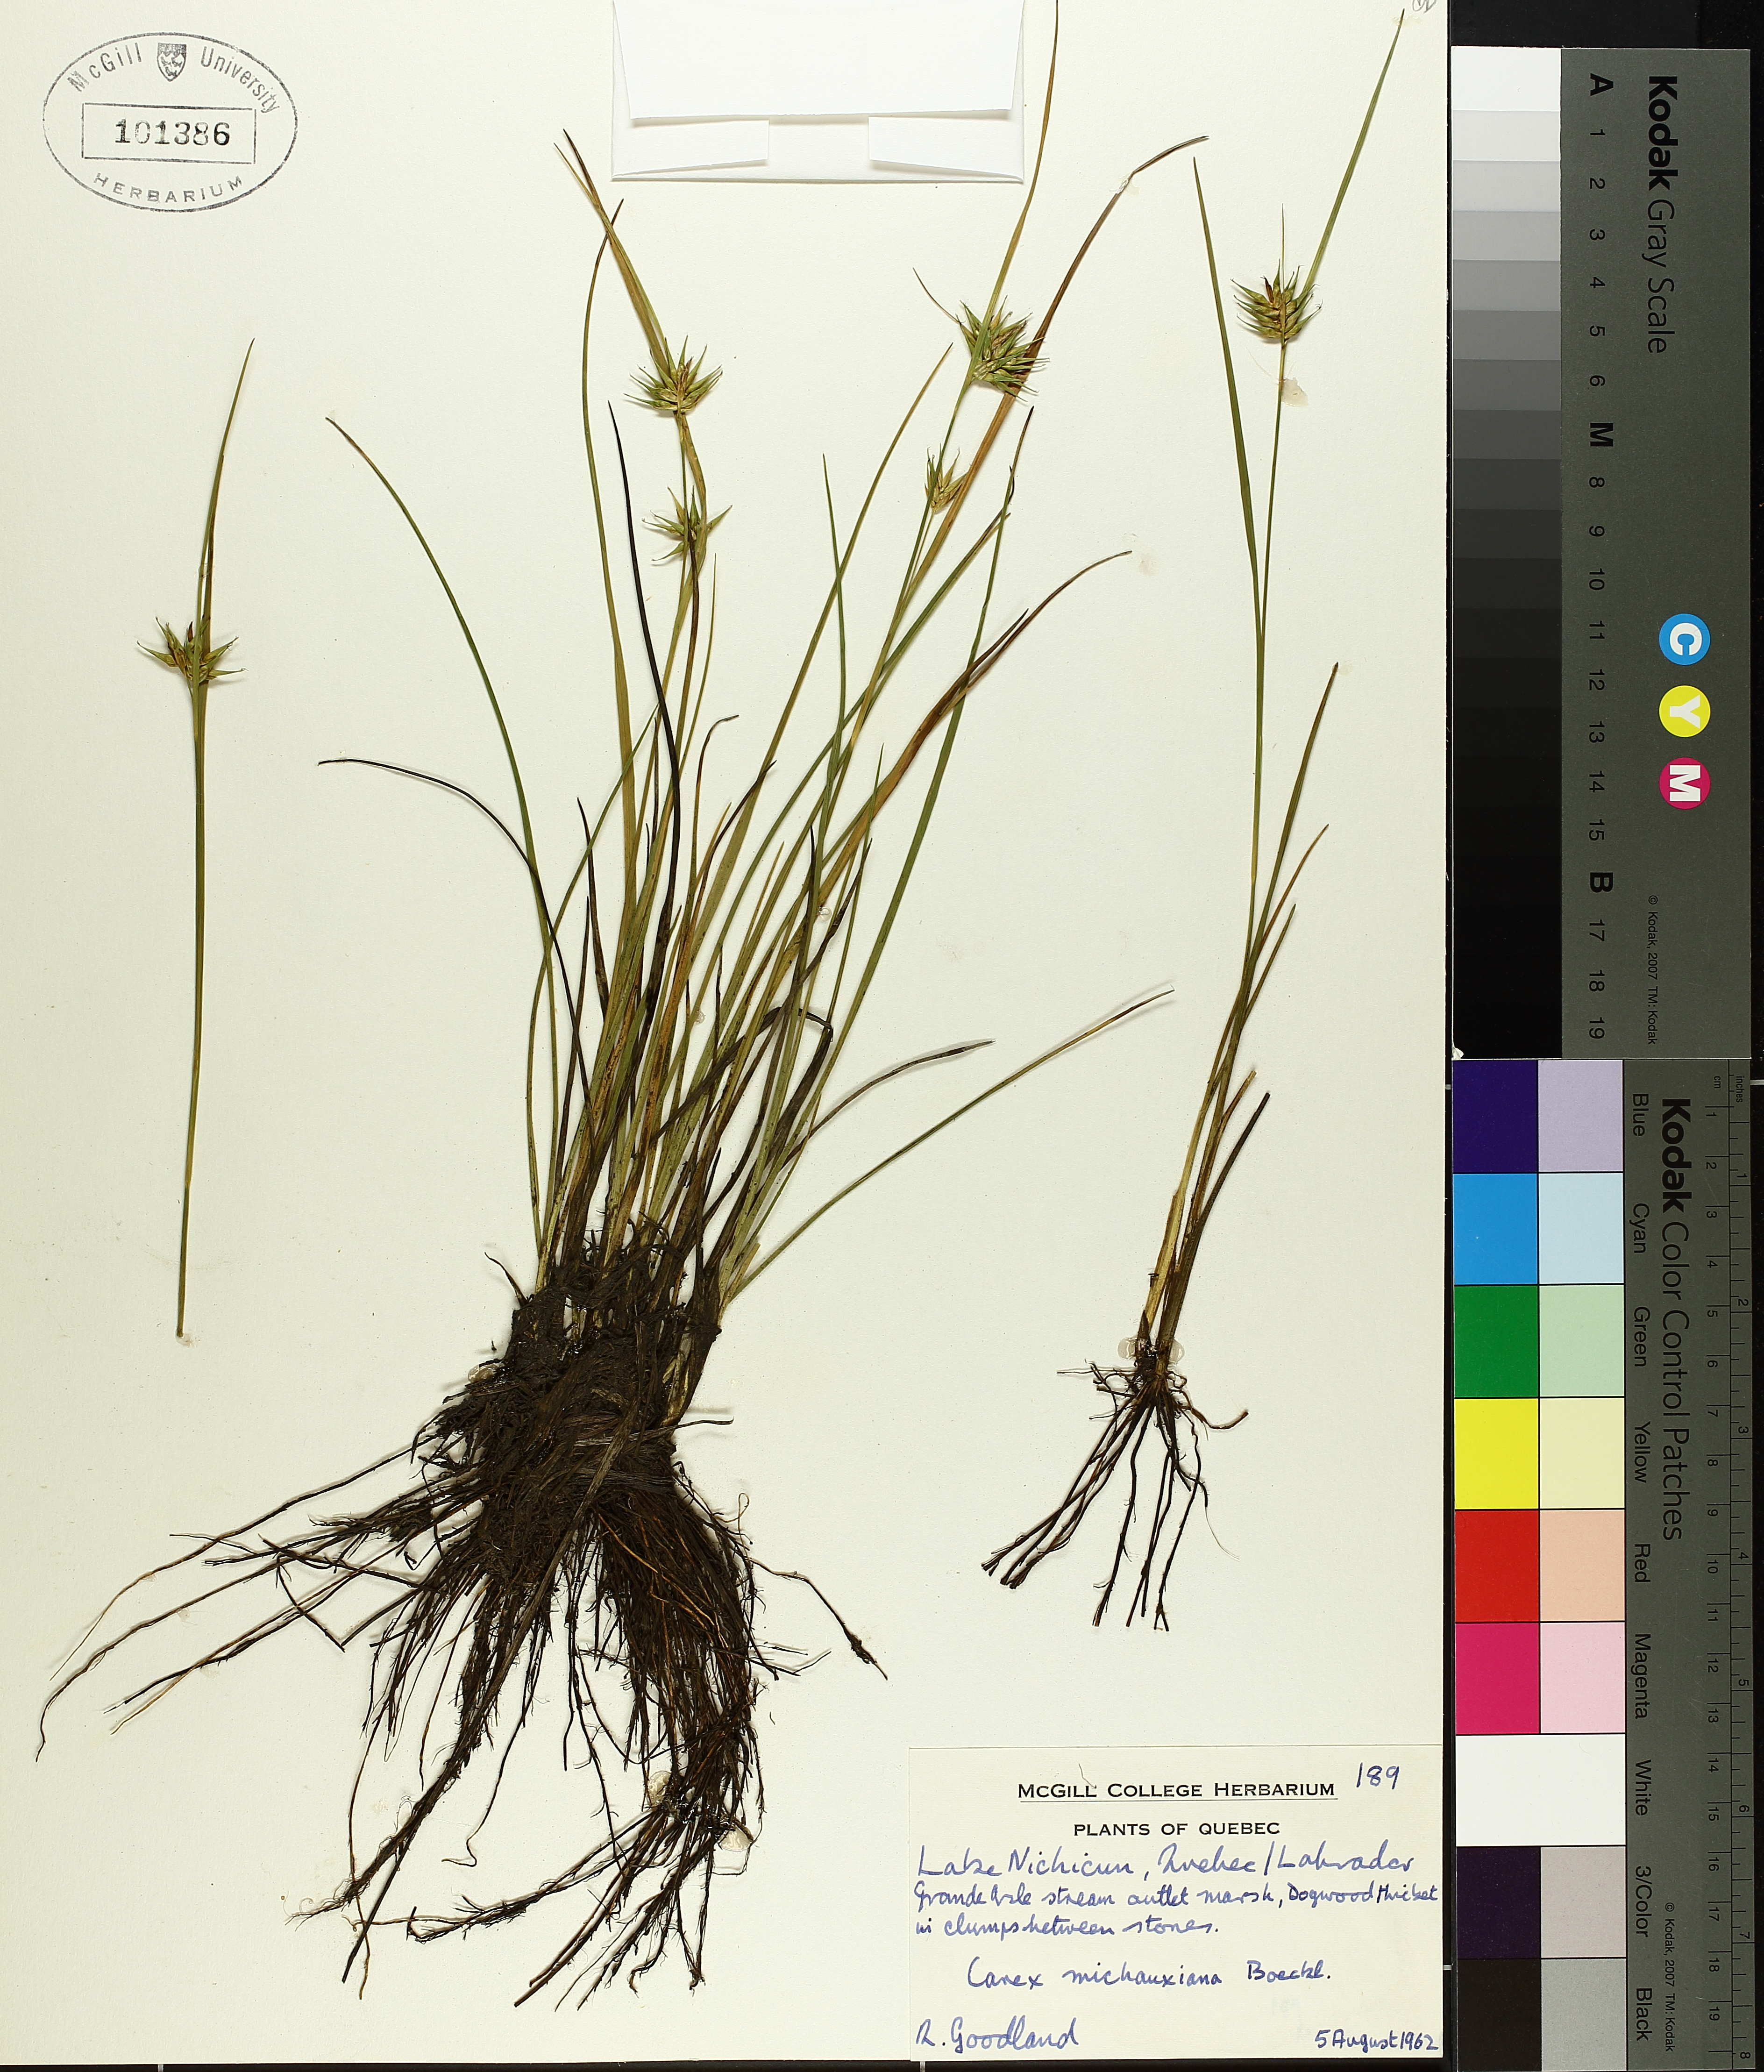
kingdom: Plantae
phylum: Tracheophyta
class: Liliopsida
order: Poales
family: Cyperaceae
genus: Carex
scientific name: Carex michauxiana
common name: Michaux's sedge
